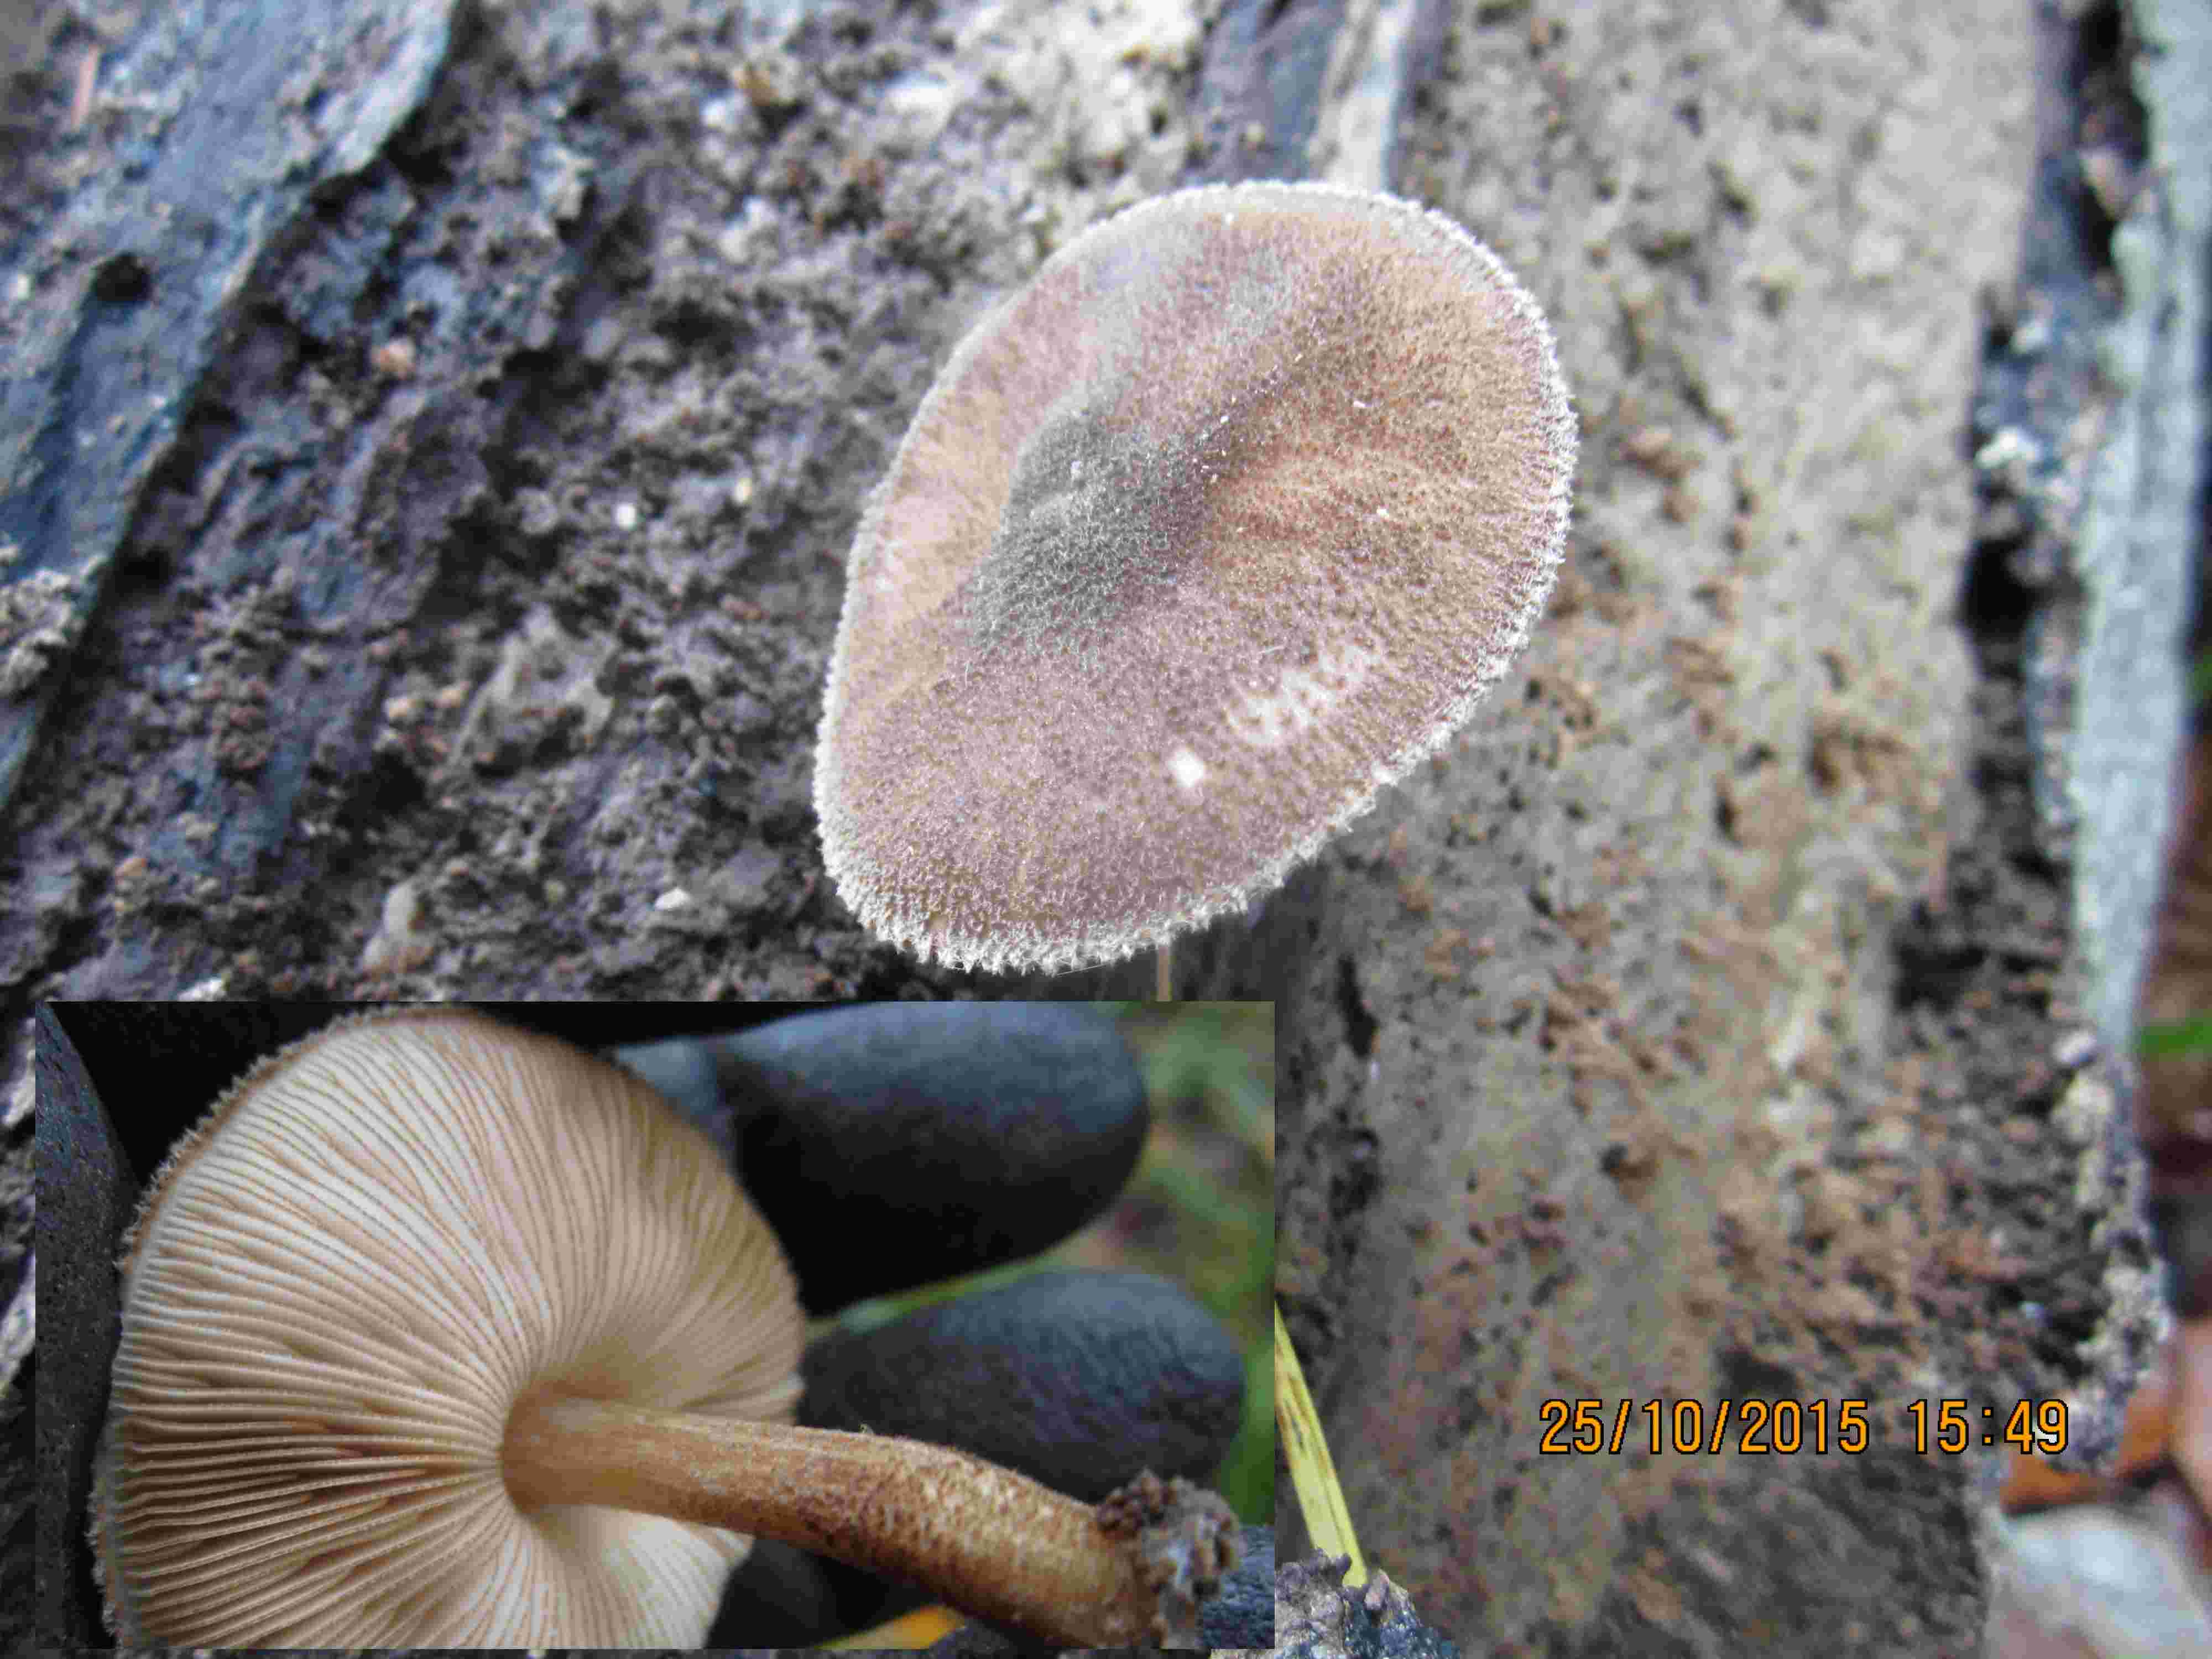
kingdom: Fungi
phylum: Basidiomycota
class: Agaricomycetes
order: Agaricales
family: Pluteaceae
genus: Pluteus
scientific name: Pluteus umbrosus
